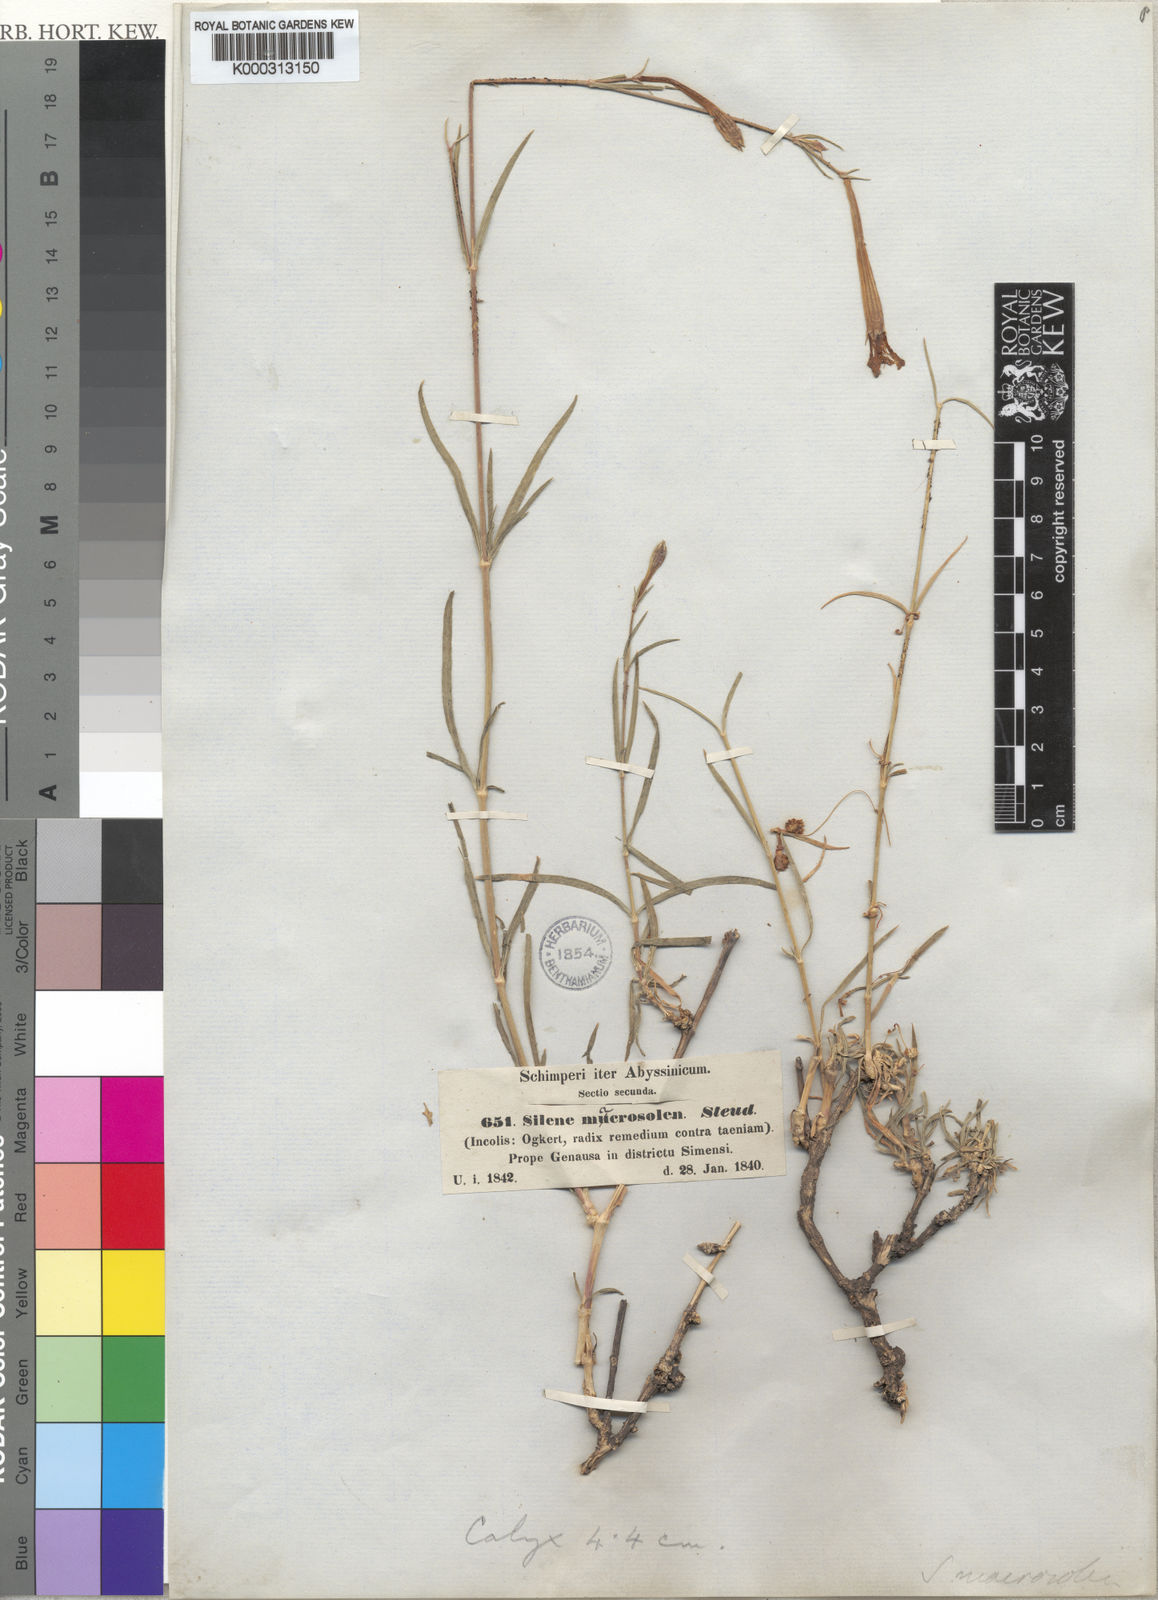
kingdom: Plantae
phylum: Tracheophyta
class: Magnoliopsida
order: Caryophyllales
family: Caryophyllaceae
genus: Silene
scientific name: Silene macrosolen
